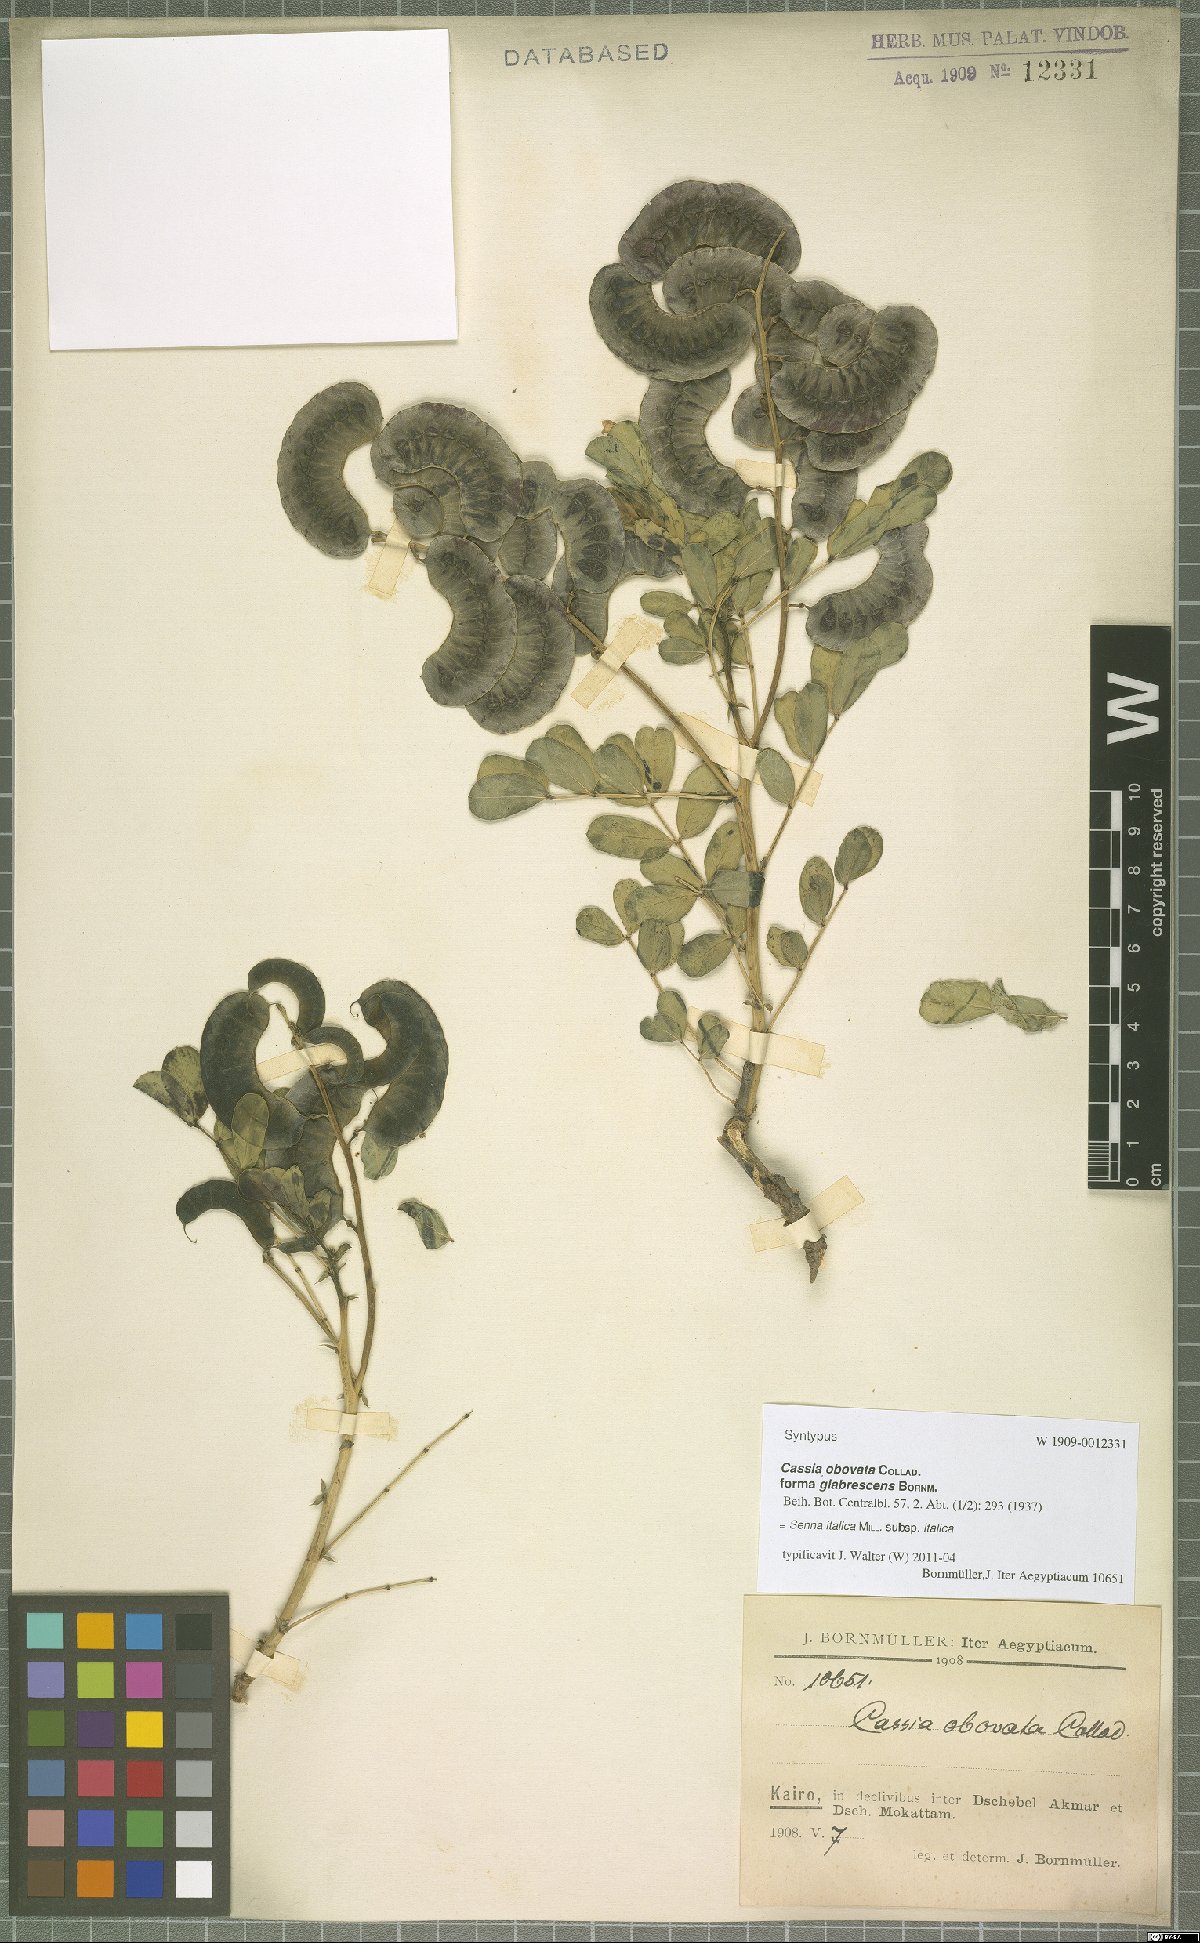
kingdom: Plantae
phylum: Tracheophyta
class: Magnoliopsida
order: Fabales
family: Fabaceae
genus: Senna
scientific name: Senna italica
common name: Port royal senna
